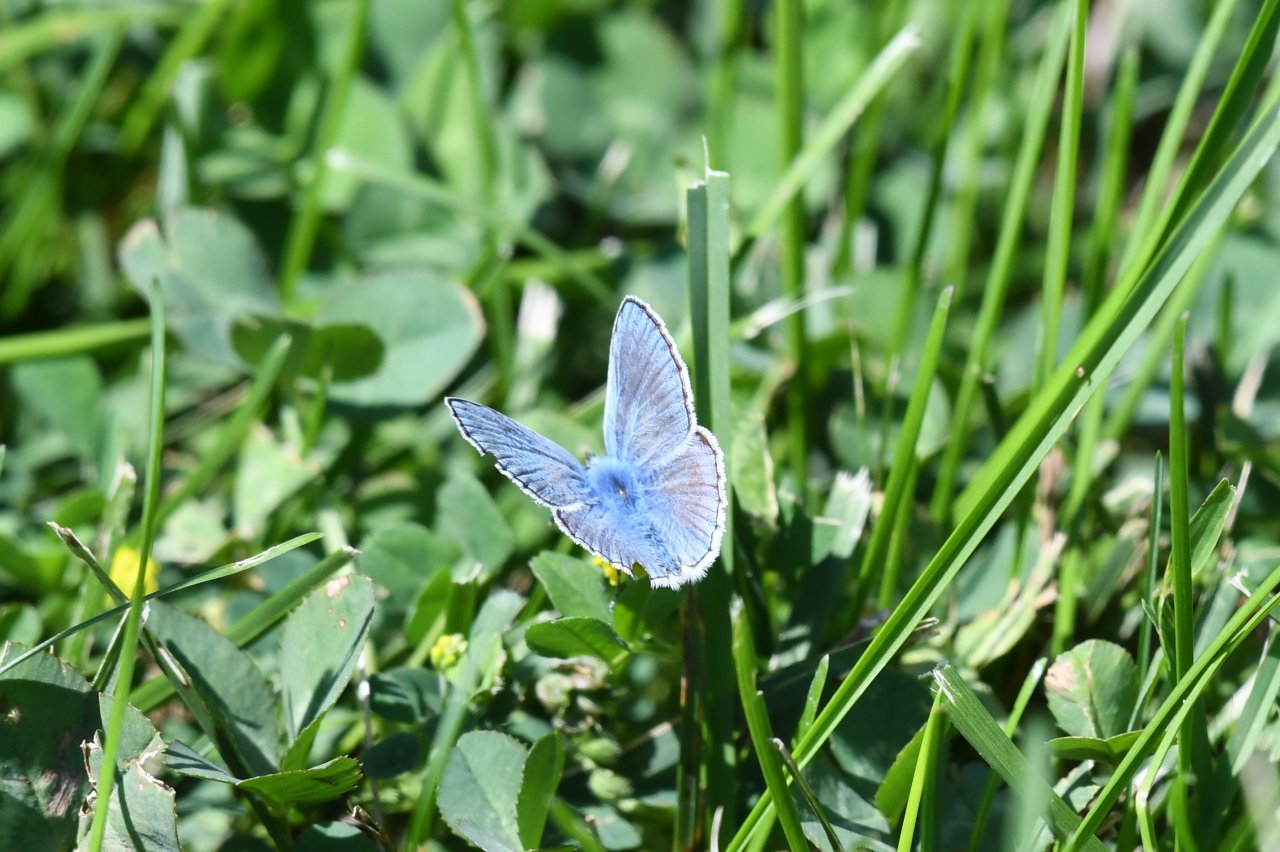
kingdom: Animalia
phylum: Arthropoda
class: Insecta
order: Lepidoptera
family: Lycaenidae
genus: Polyommatus
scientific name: Polyommatus icarus
